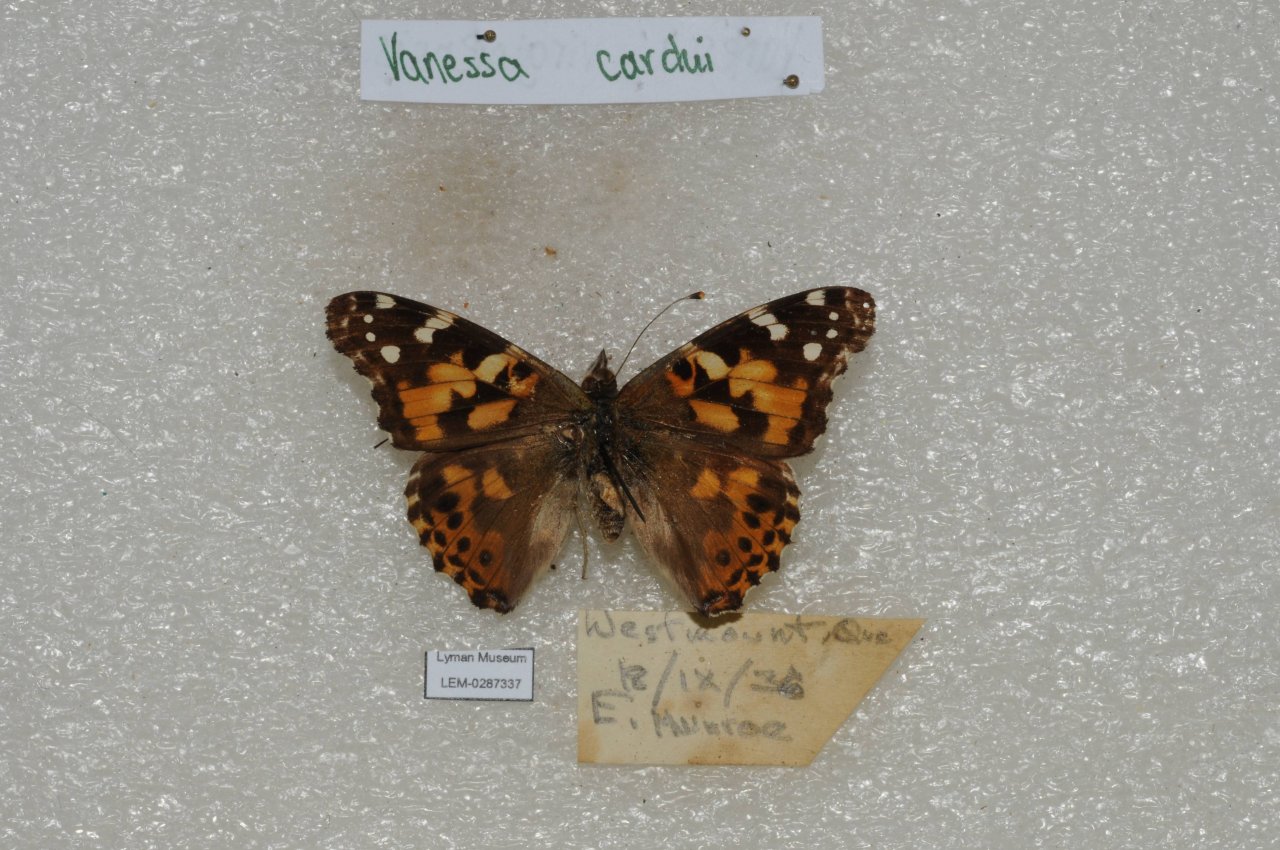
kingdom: Animalia
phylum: Arthropoda
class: Insecta
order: Lepidoptera
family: Nymphalidae
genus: Vanessa
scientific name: Vanessa cardui
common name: Painted Lady
